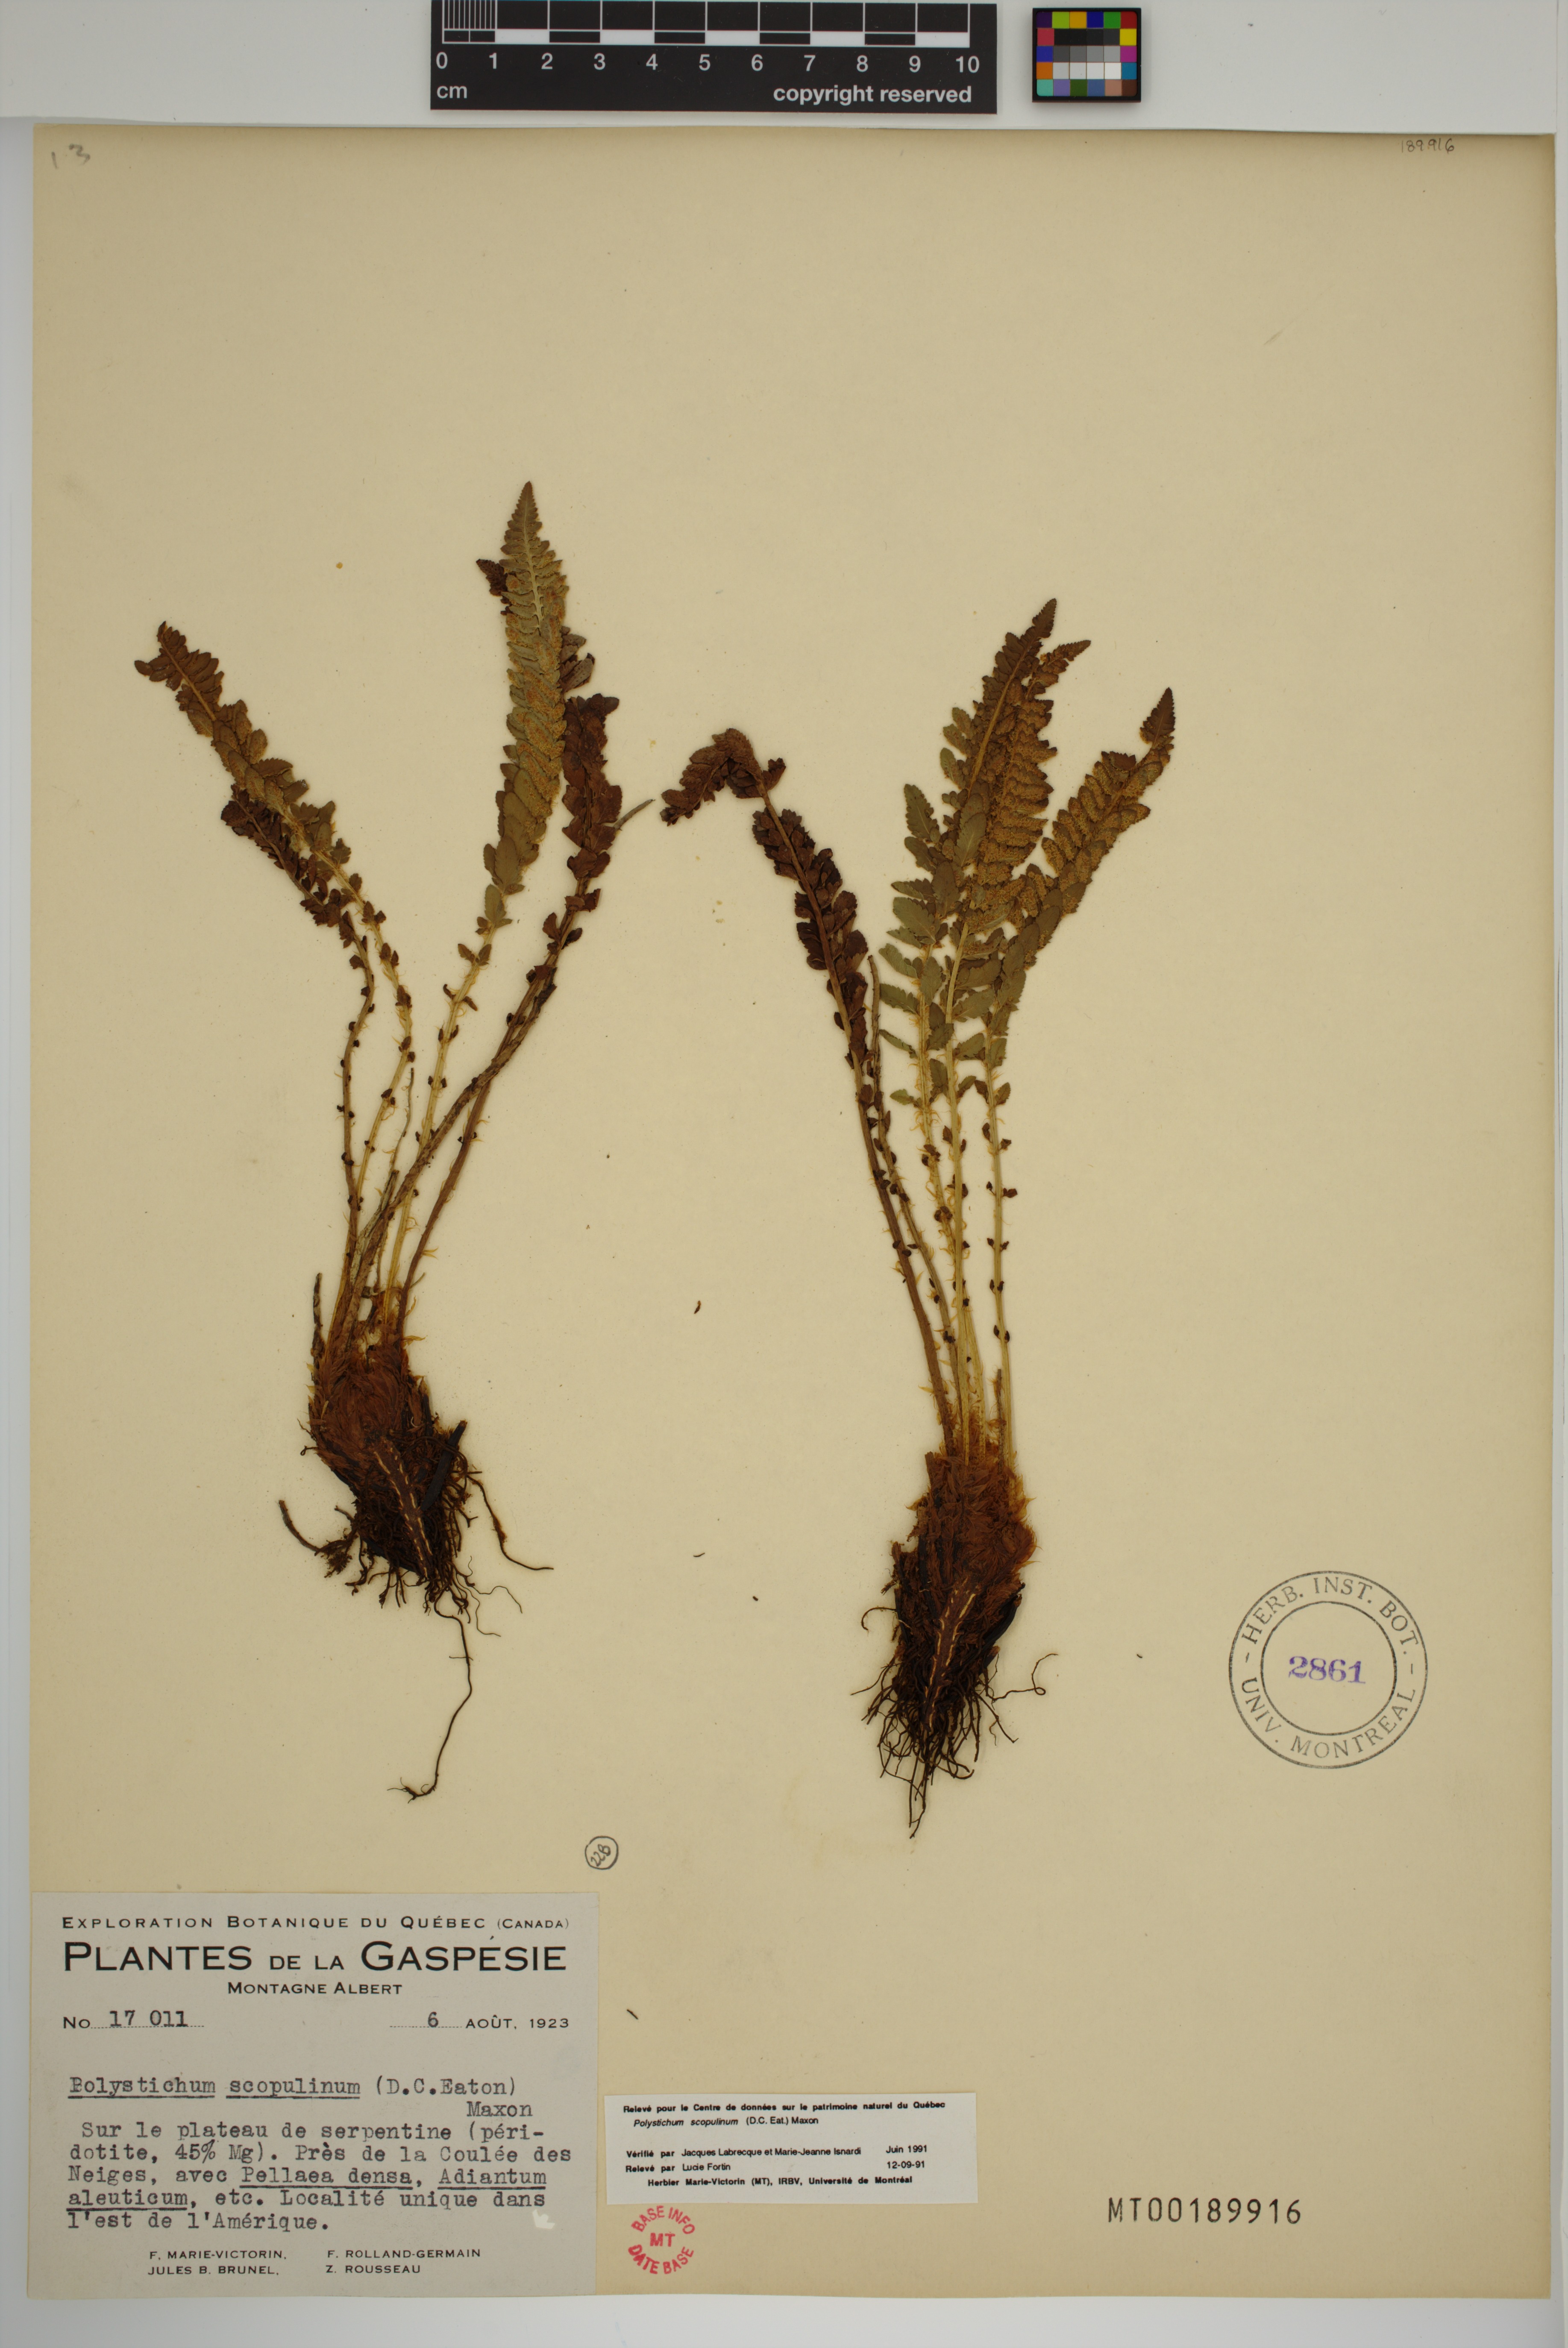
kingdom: Plantae
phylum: Tracheophyta
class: Polypodiopsida
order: Polypodiales
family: Dryopteridaceae
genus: Polystichum
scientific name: Polystichum scopulinum
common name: Eaton's shield fern
